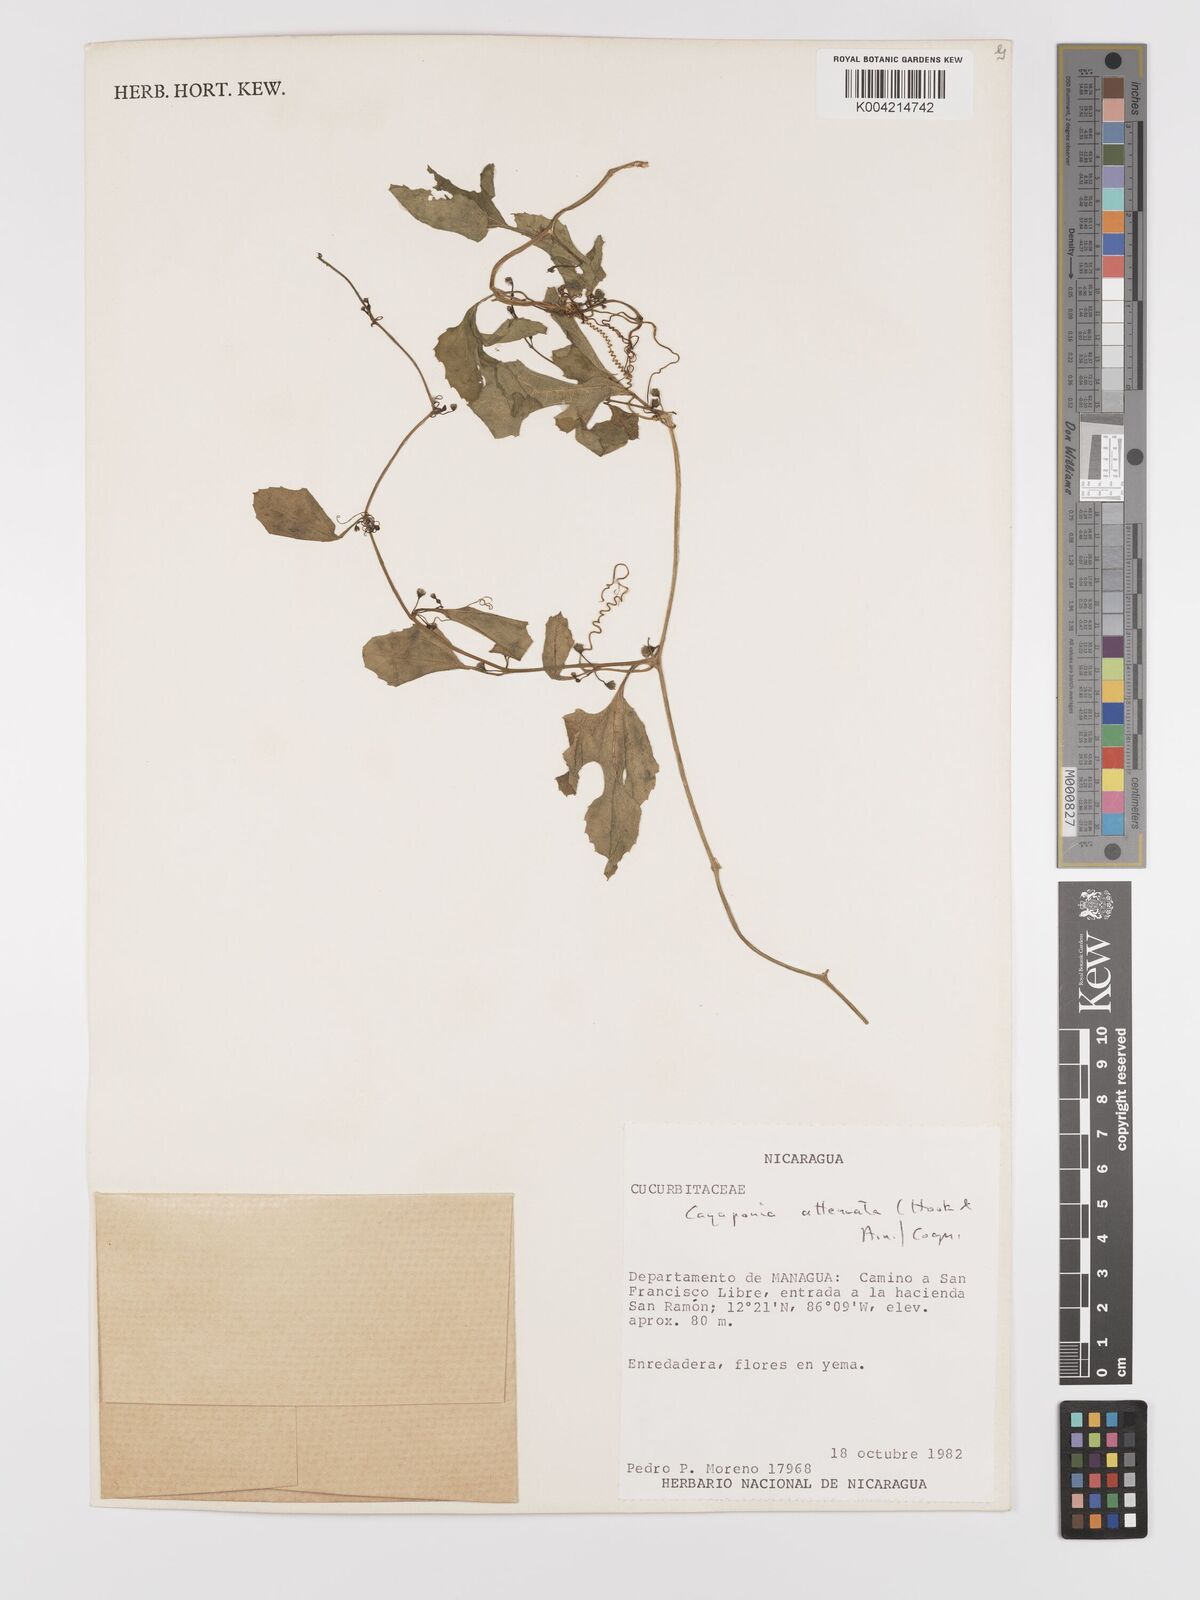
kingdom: Plantae
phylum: Tracheophyta
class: Magnoliopsida
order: Cucurbitales
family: Cucurbitaceae
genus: Cayaponia
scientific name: Cayaponia attenuata
